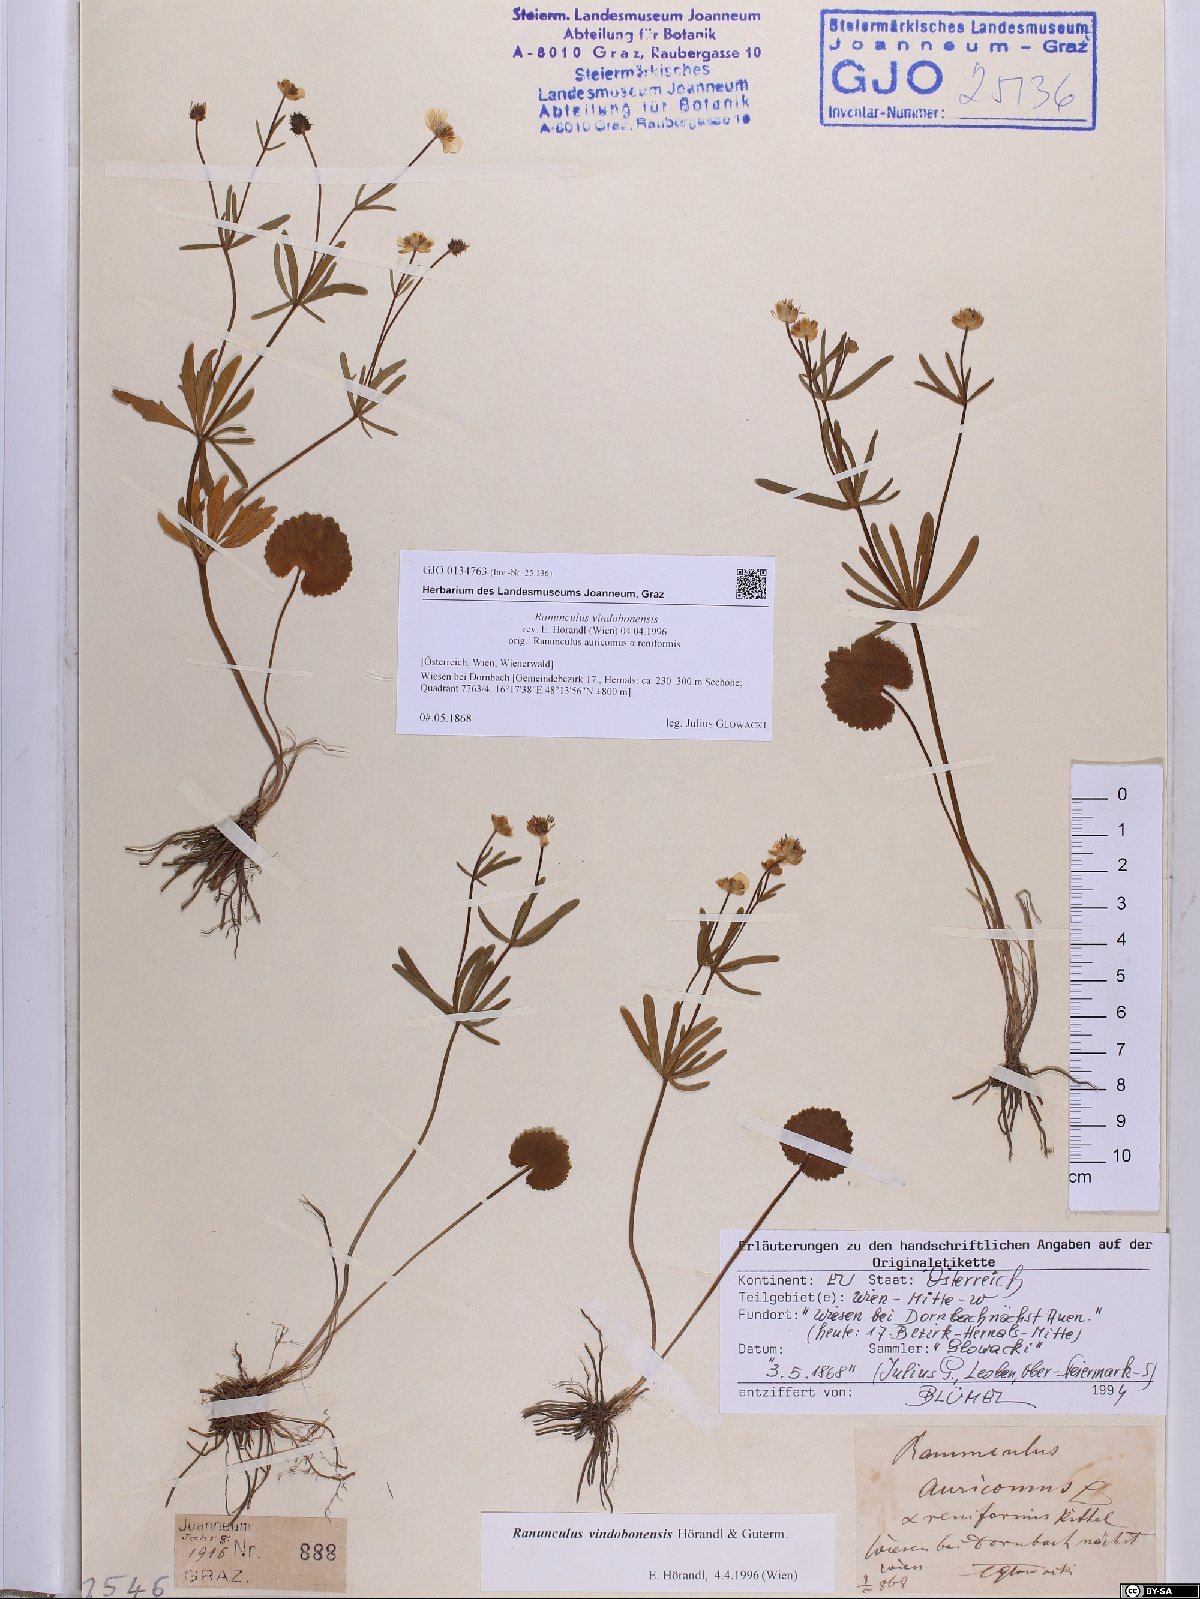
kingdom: Plantae
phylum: Tracheophyta
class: Magnoliopsida
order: Ranunculales
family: Ranunculaceae
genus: Ranunculus
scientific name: Ranunculus vindobonensis
